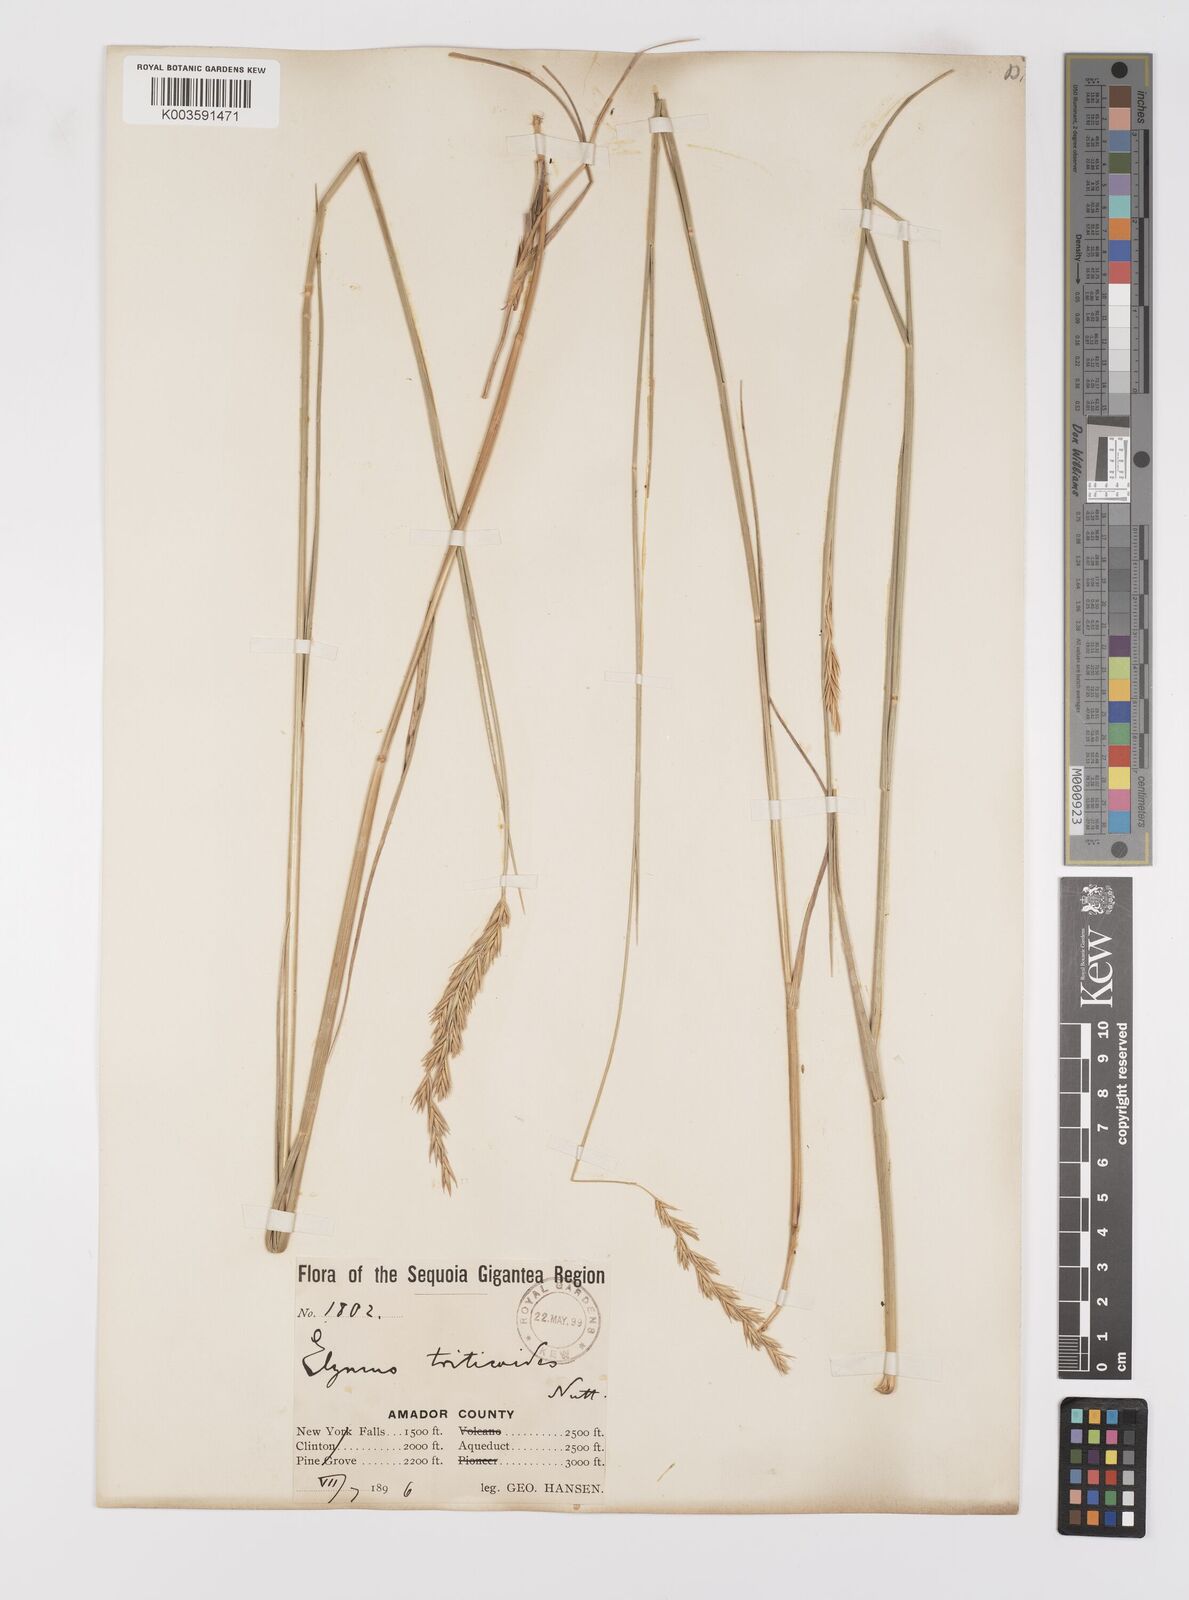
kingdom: Plantae
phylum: Tracheophyta
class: Liliopsida
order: Poales
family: Poaceae
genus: Leymus
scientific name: Leymus triticoides
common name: Beardless wild rye
